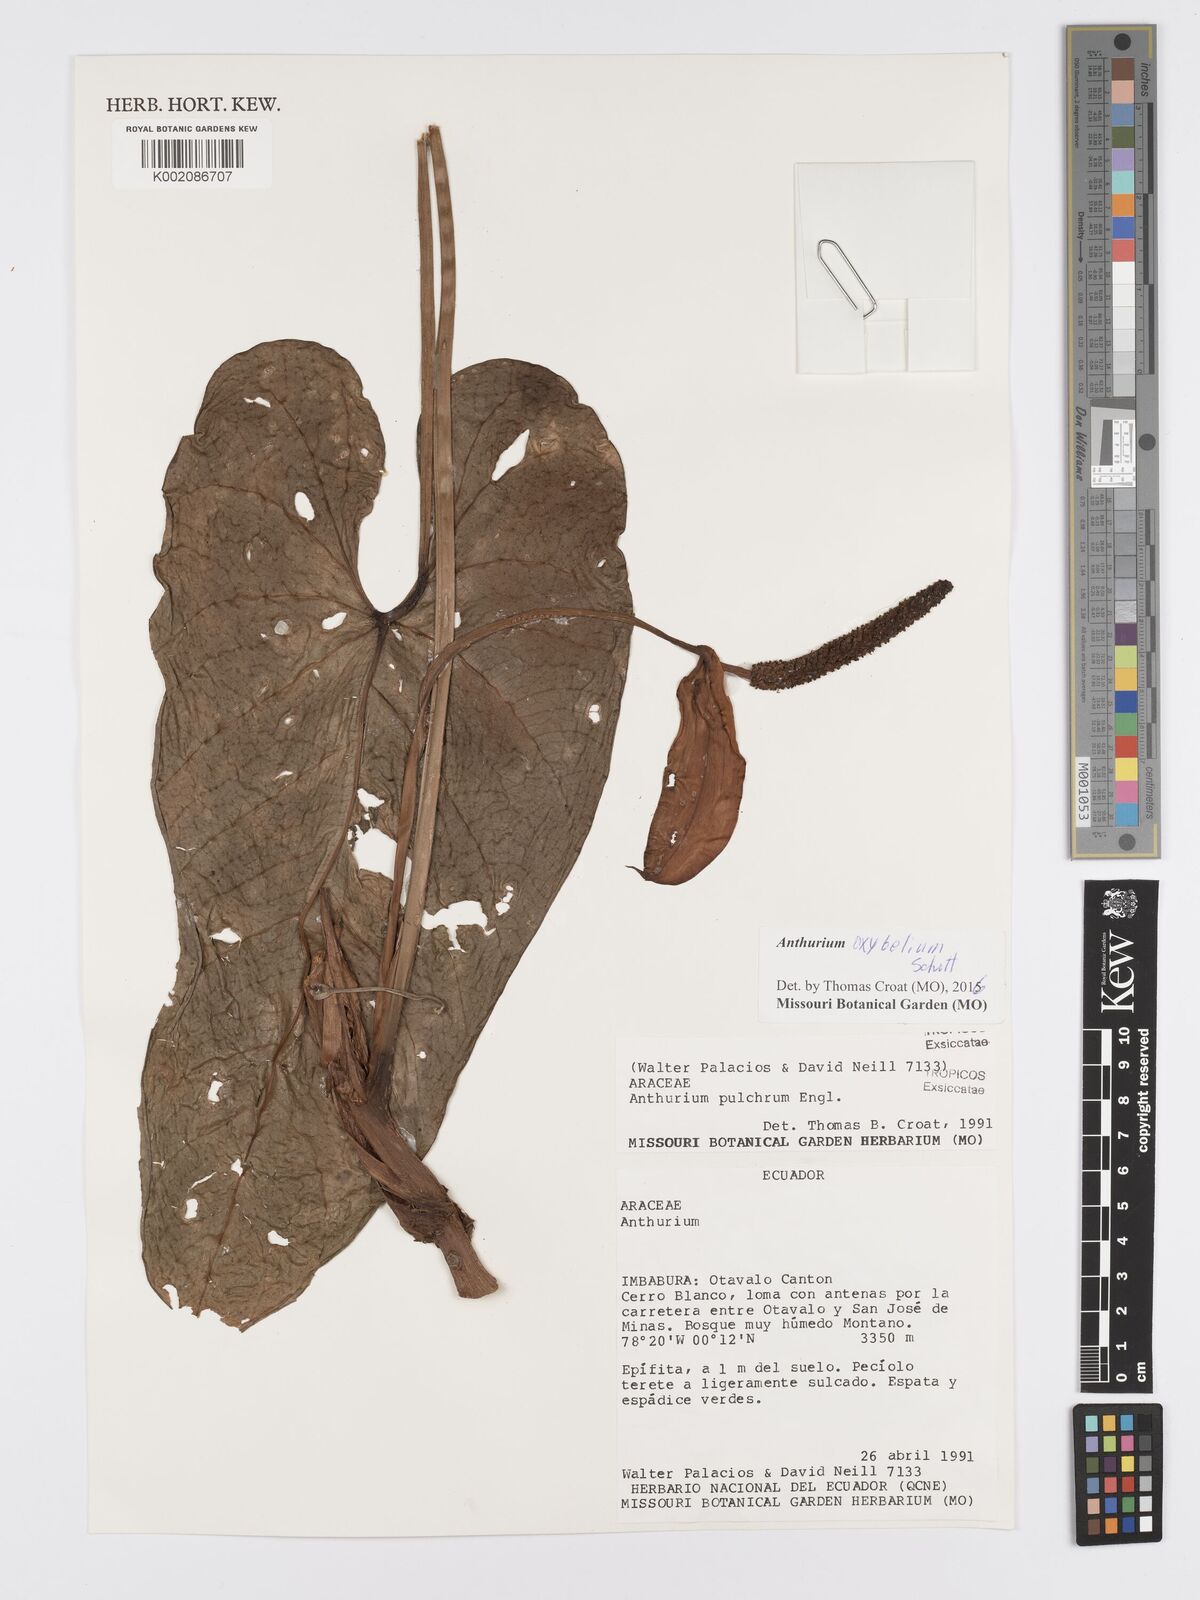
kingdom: Plantae
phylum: Tracheophyta
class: Liliopsida
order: Alismatales
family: Araceae
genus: Anthurium
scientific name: Anthurium oxybelium
